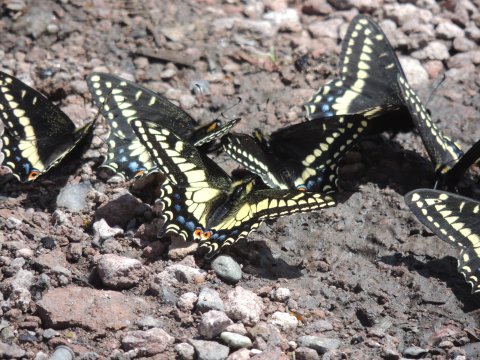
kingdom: Animalia
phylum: Arthropoda
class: Insecta
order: Lepidoptera
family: Papilionidae
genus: Papilio
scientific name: Papilio zelicaon
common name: Anise Swallowtail
